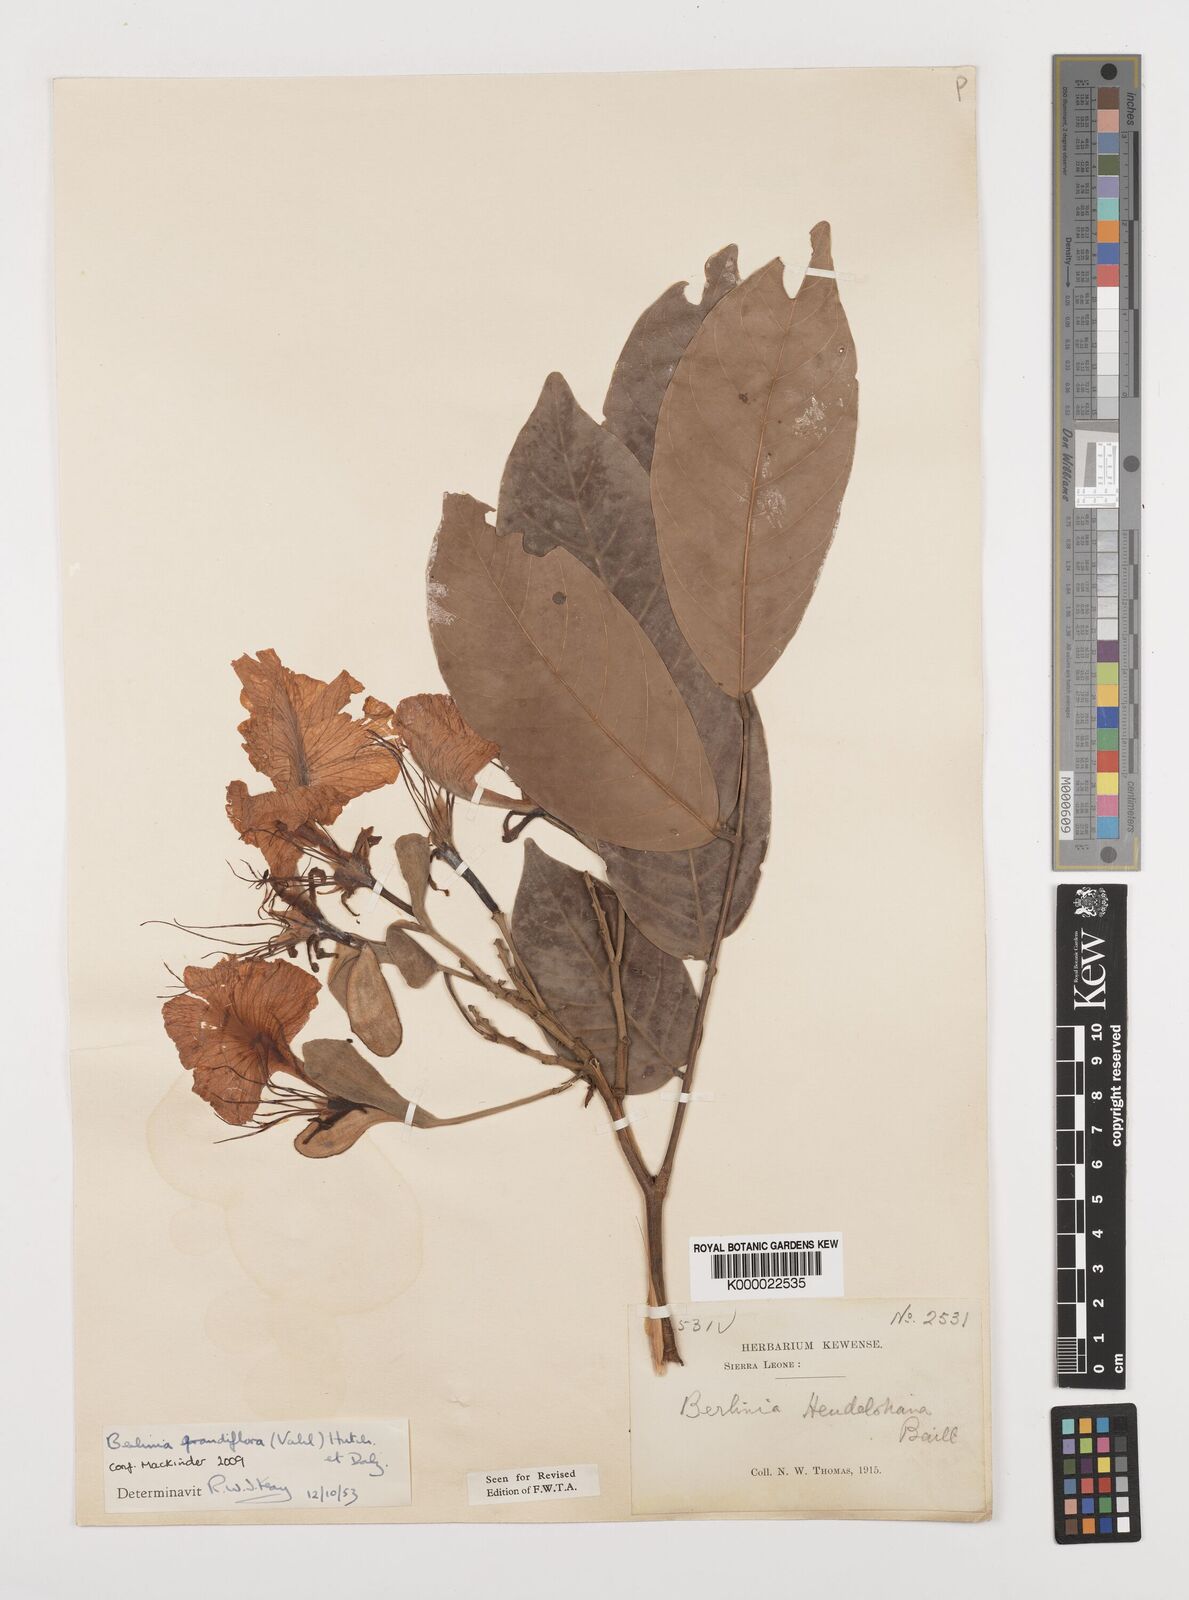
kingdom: Plantae
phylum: Tracheophyta
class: Magnoliopsida
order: Fabales
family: Fabaceae
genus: Berlinia
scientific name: Berlinia grandiflora
